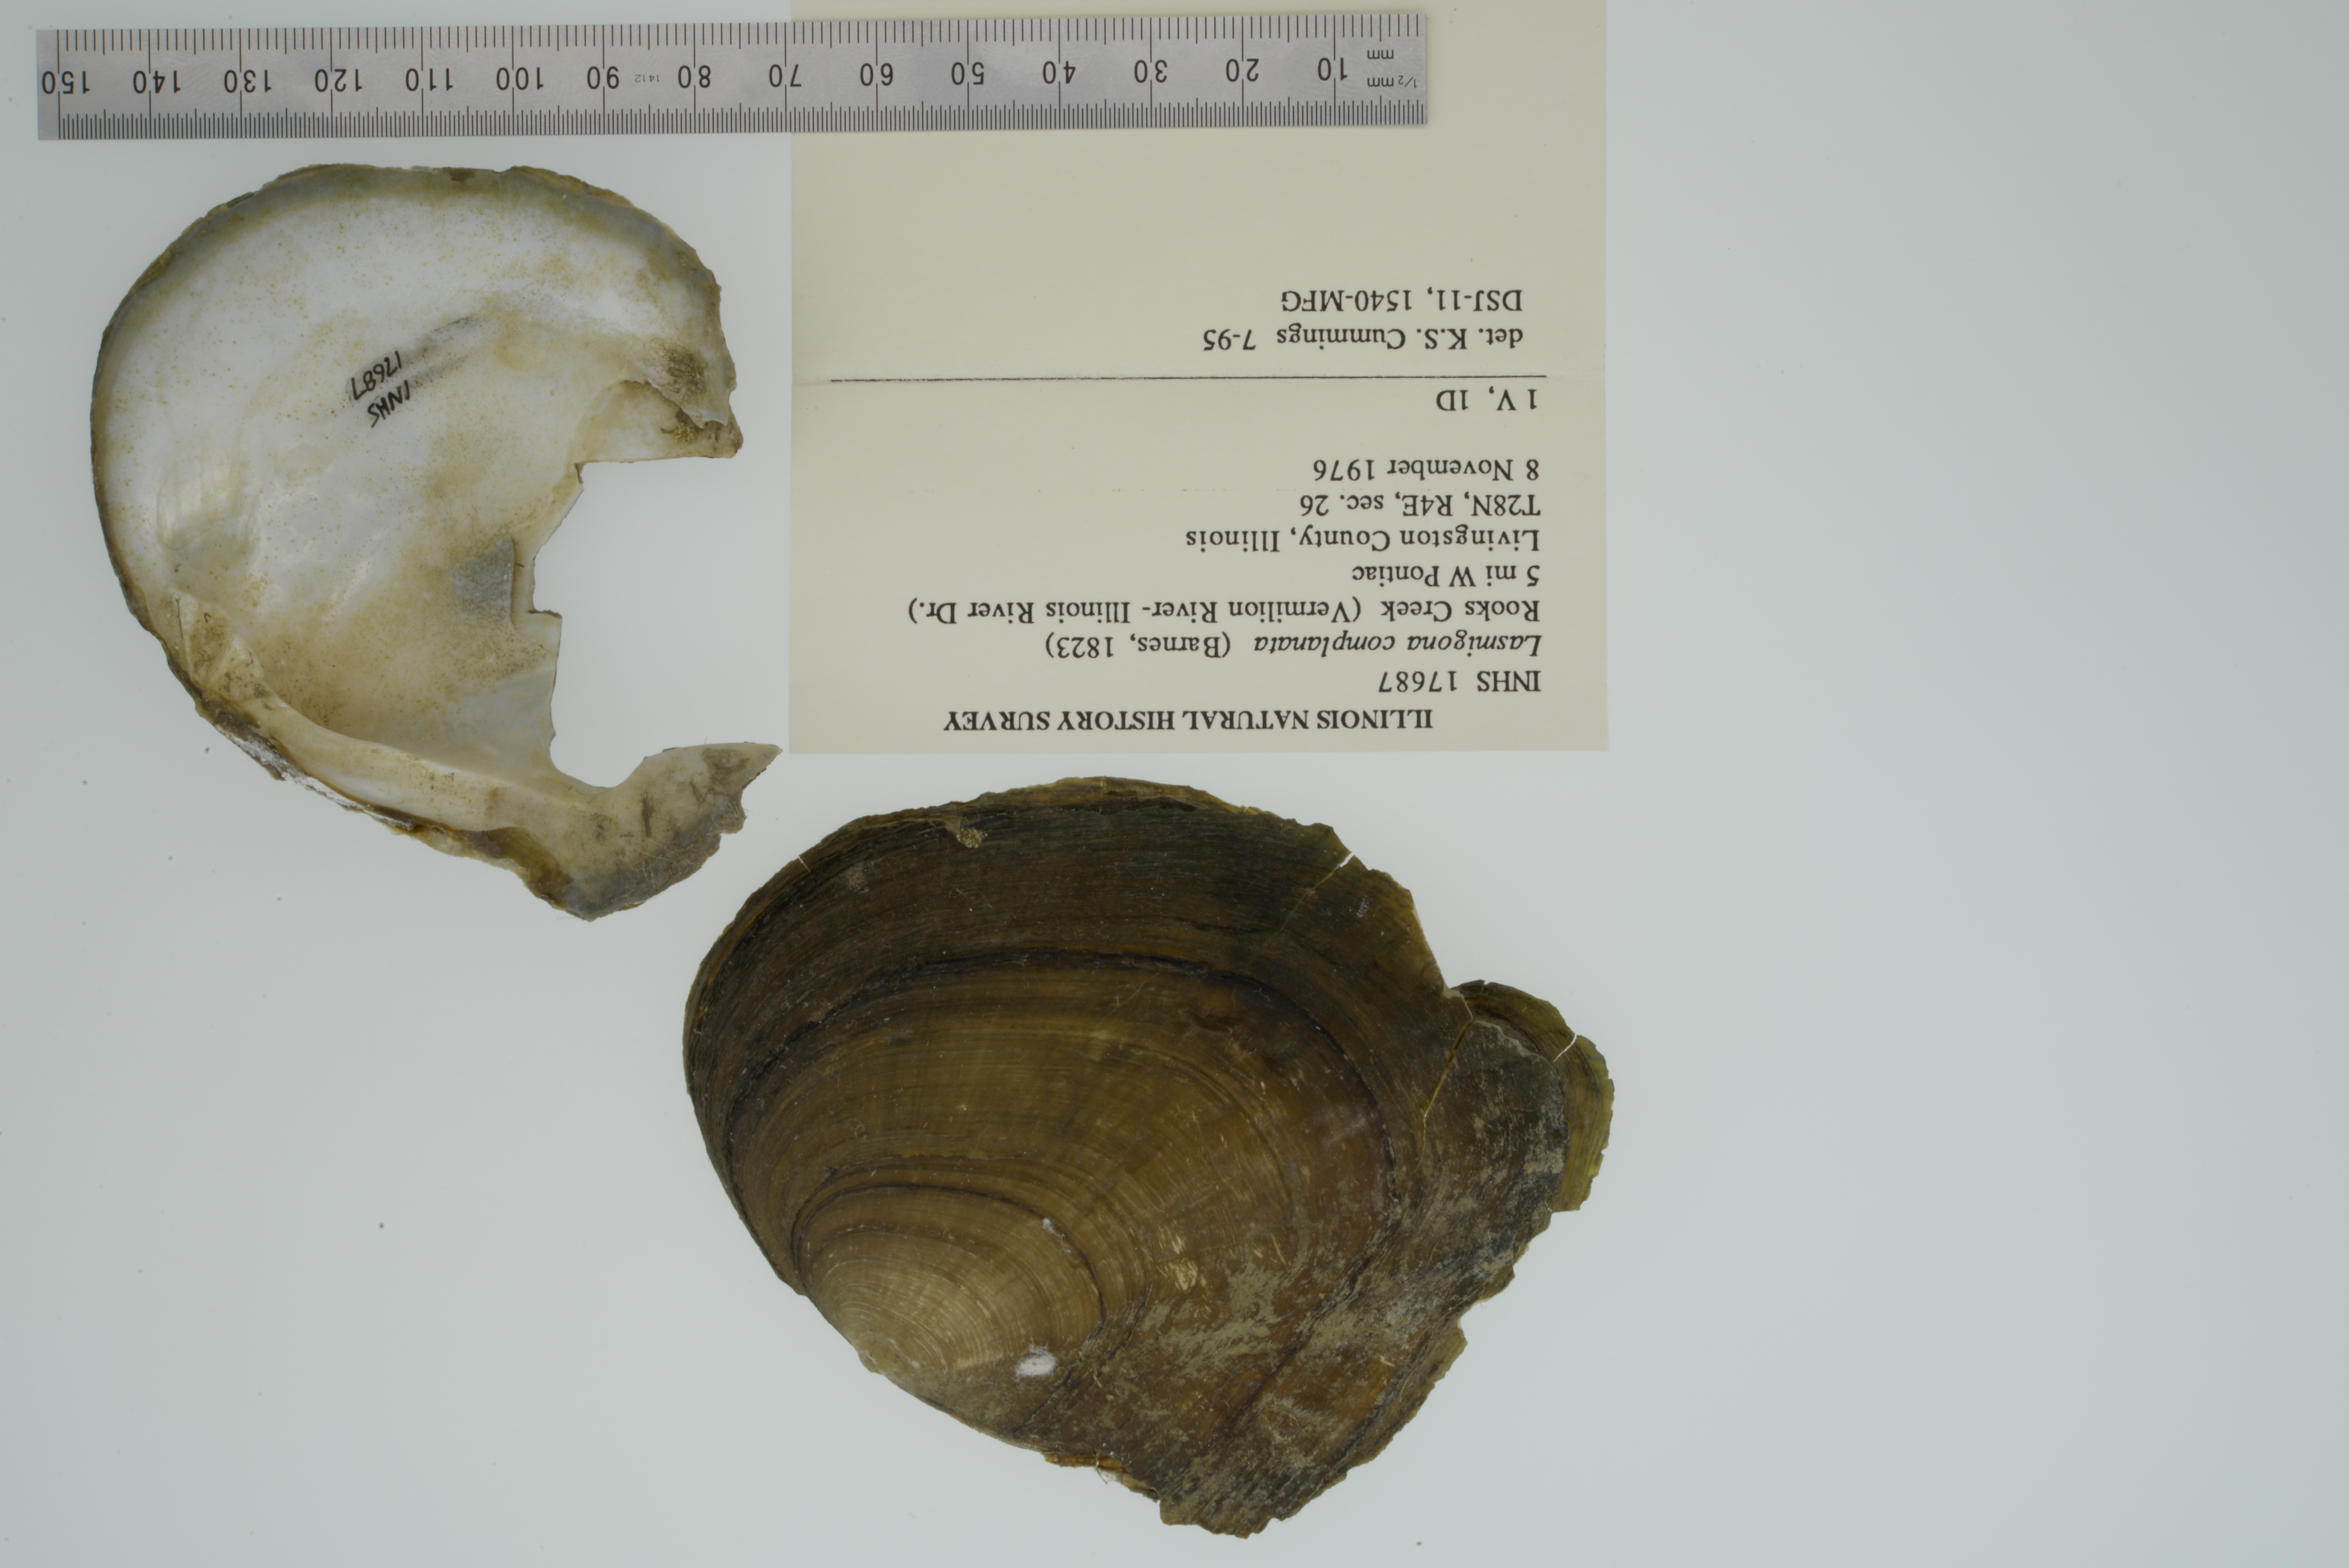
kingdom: Animalia
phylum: Mollusca
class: Bivalvia
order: Unionida
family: Unionidae
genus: Lasmigona
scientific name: Lasmigona complanata
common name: White heelsplitter
